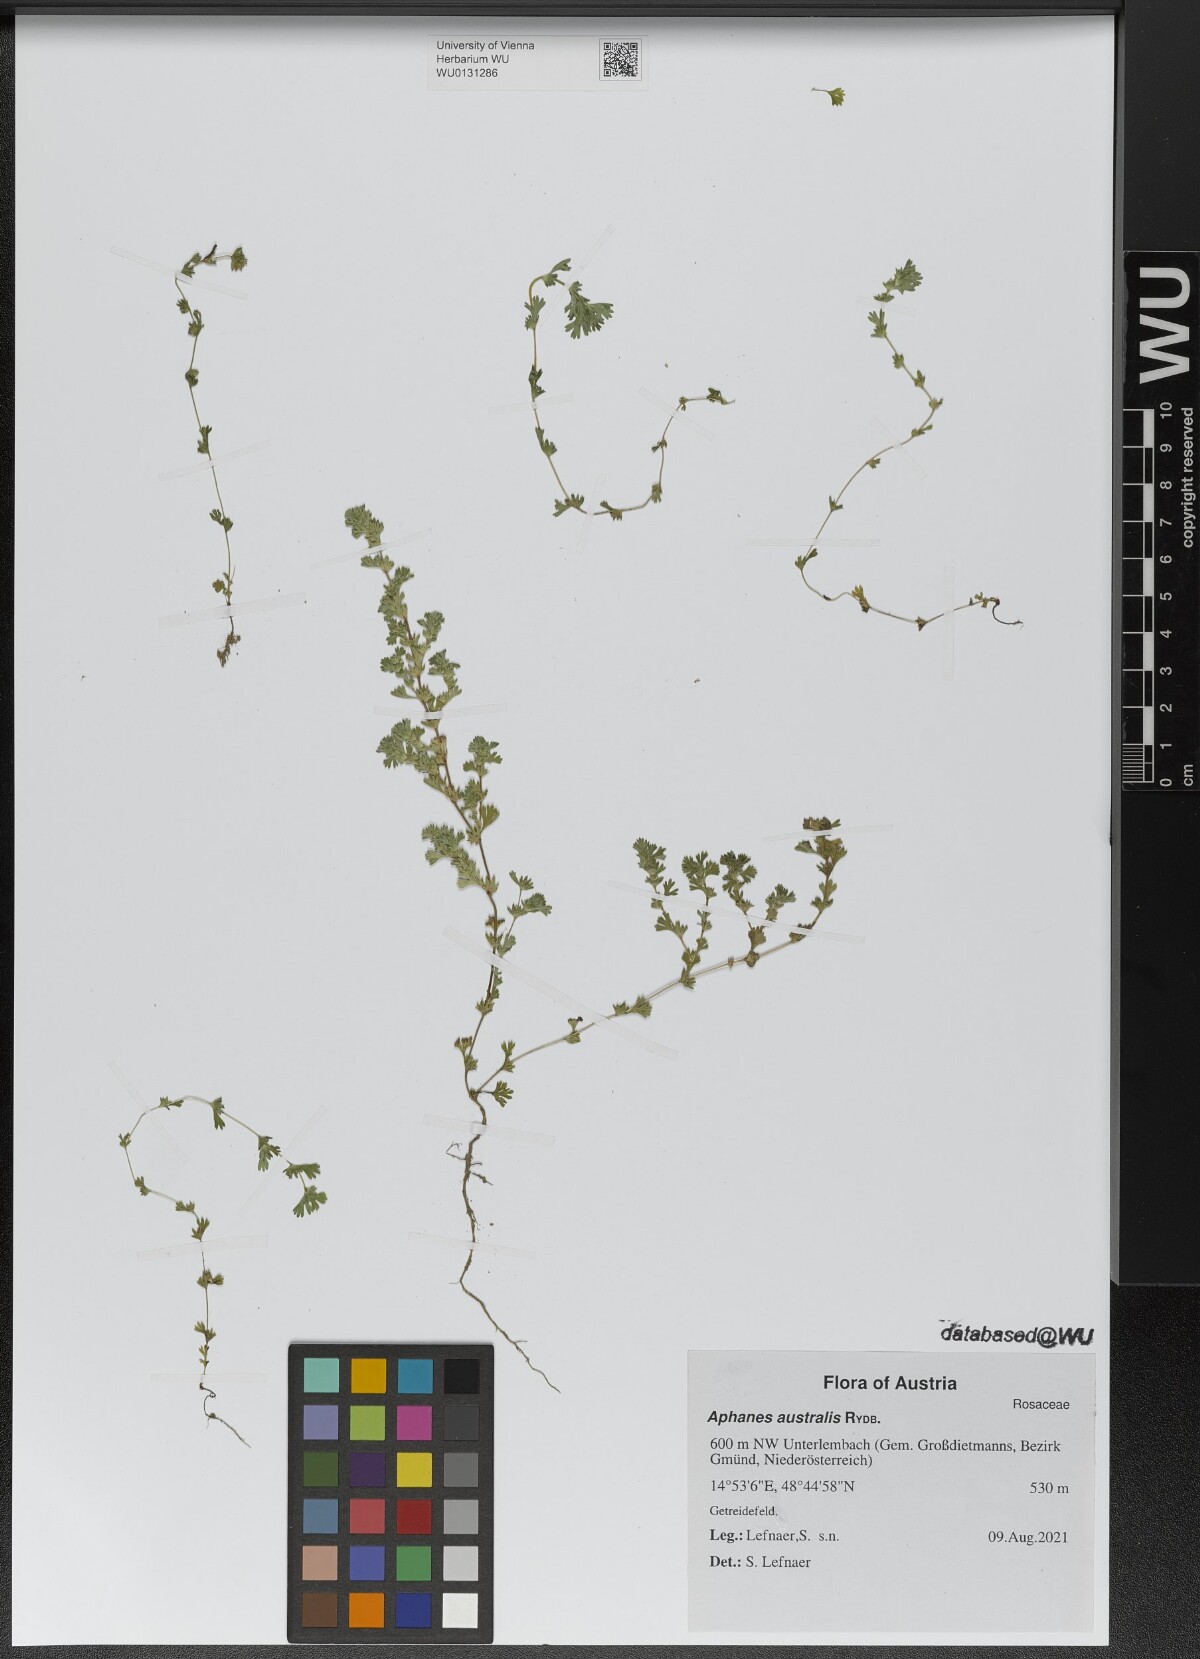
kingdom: Plantae
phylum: Tracheophyta
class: Magnoliopsida
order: Rosales
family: Rosaceae
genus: Aphanes
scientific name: Aphanes australis
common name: Slender parsley-piert
